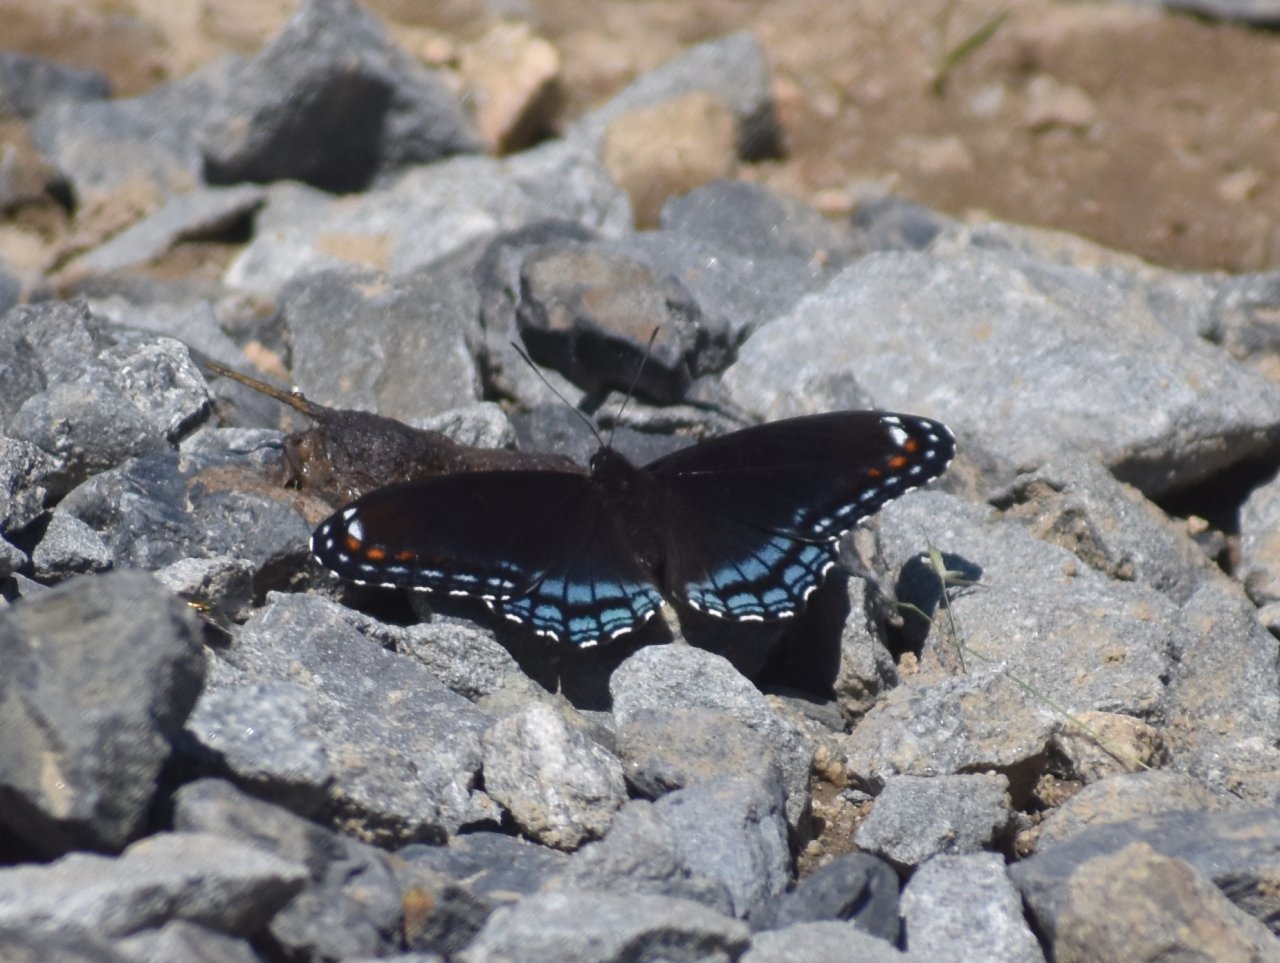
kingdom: Animalia
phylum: Arthropoda
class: Insecta
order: Lepidoptera
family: Nymphalidae
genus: Limenitis
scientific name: Limenitis arthemis
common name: Red-spotted Admiral
